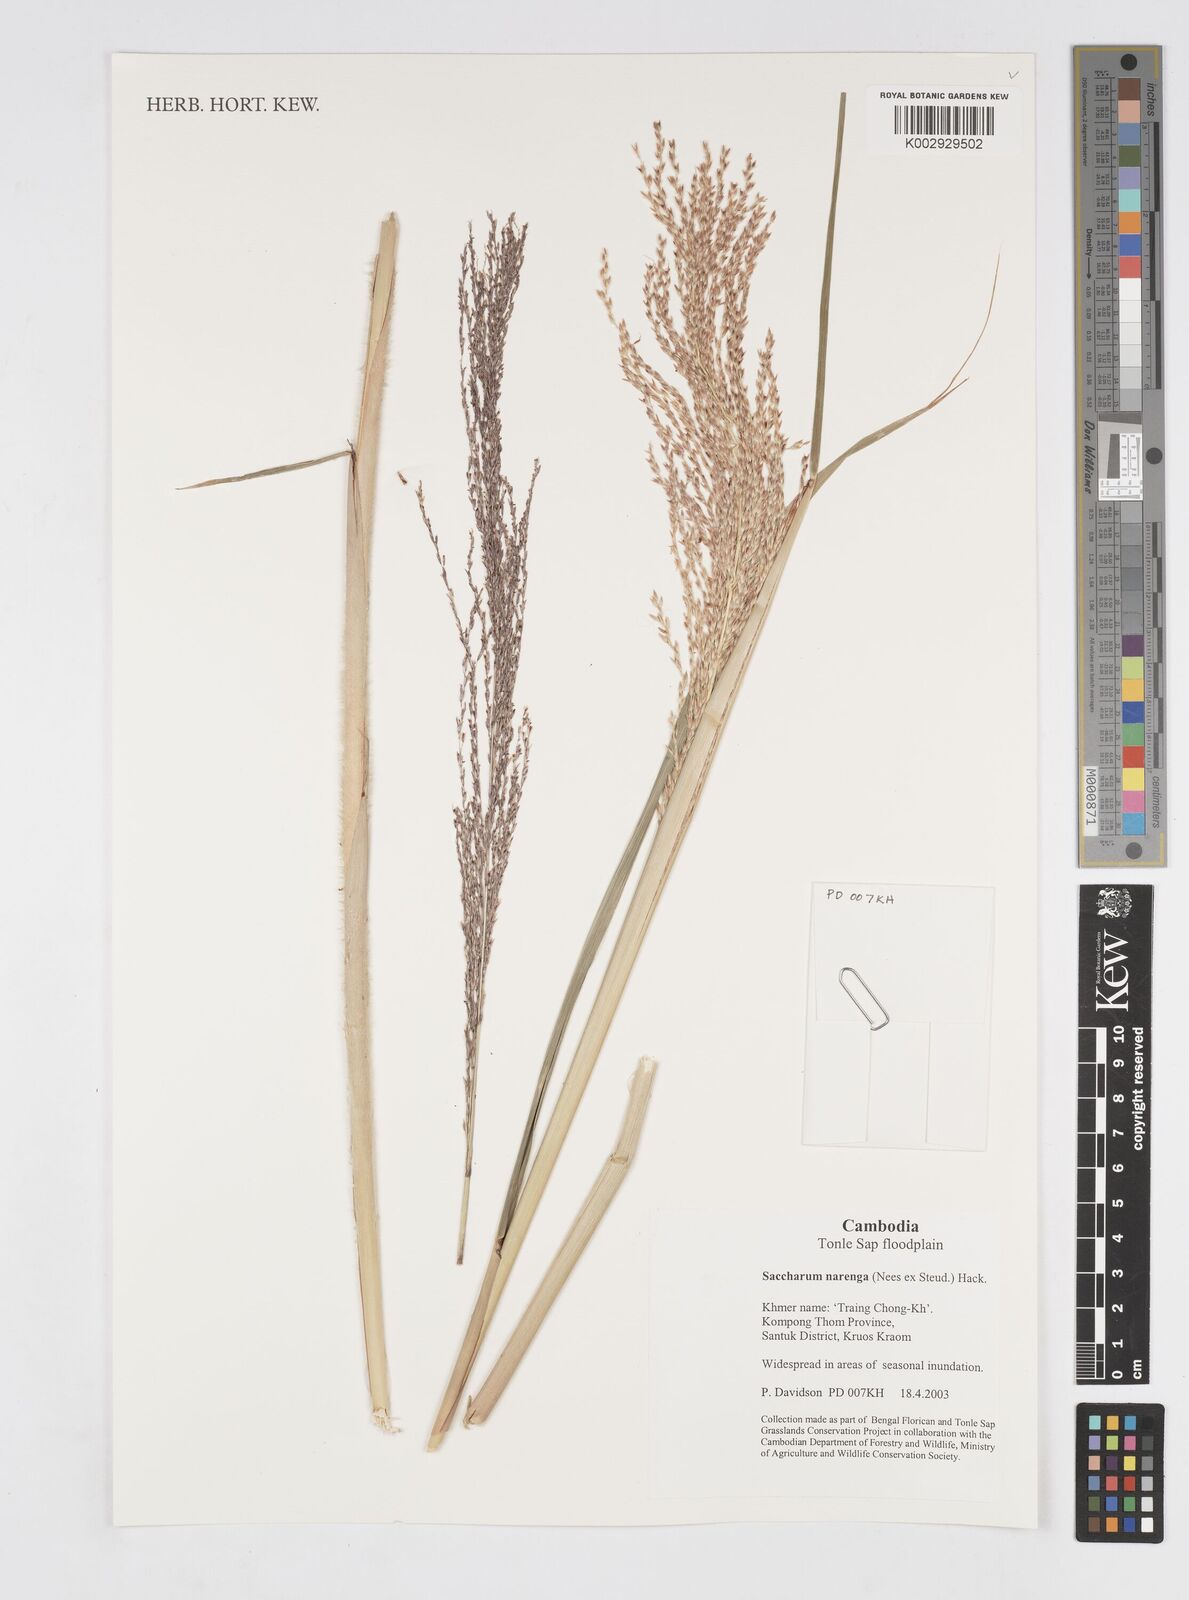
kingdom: Plantae
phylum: Tracheophyta
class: Liliopsida
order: Poales
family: Poaceae
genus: Narenga
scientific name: Narenga porphyrocoma
